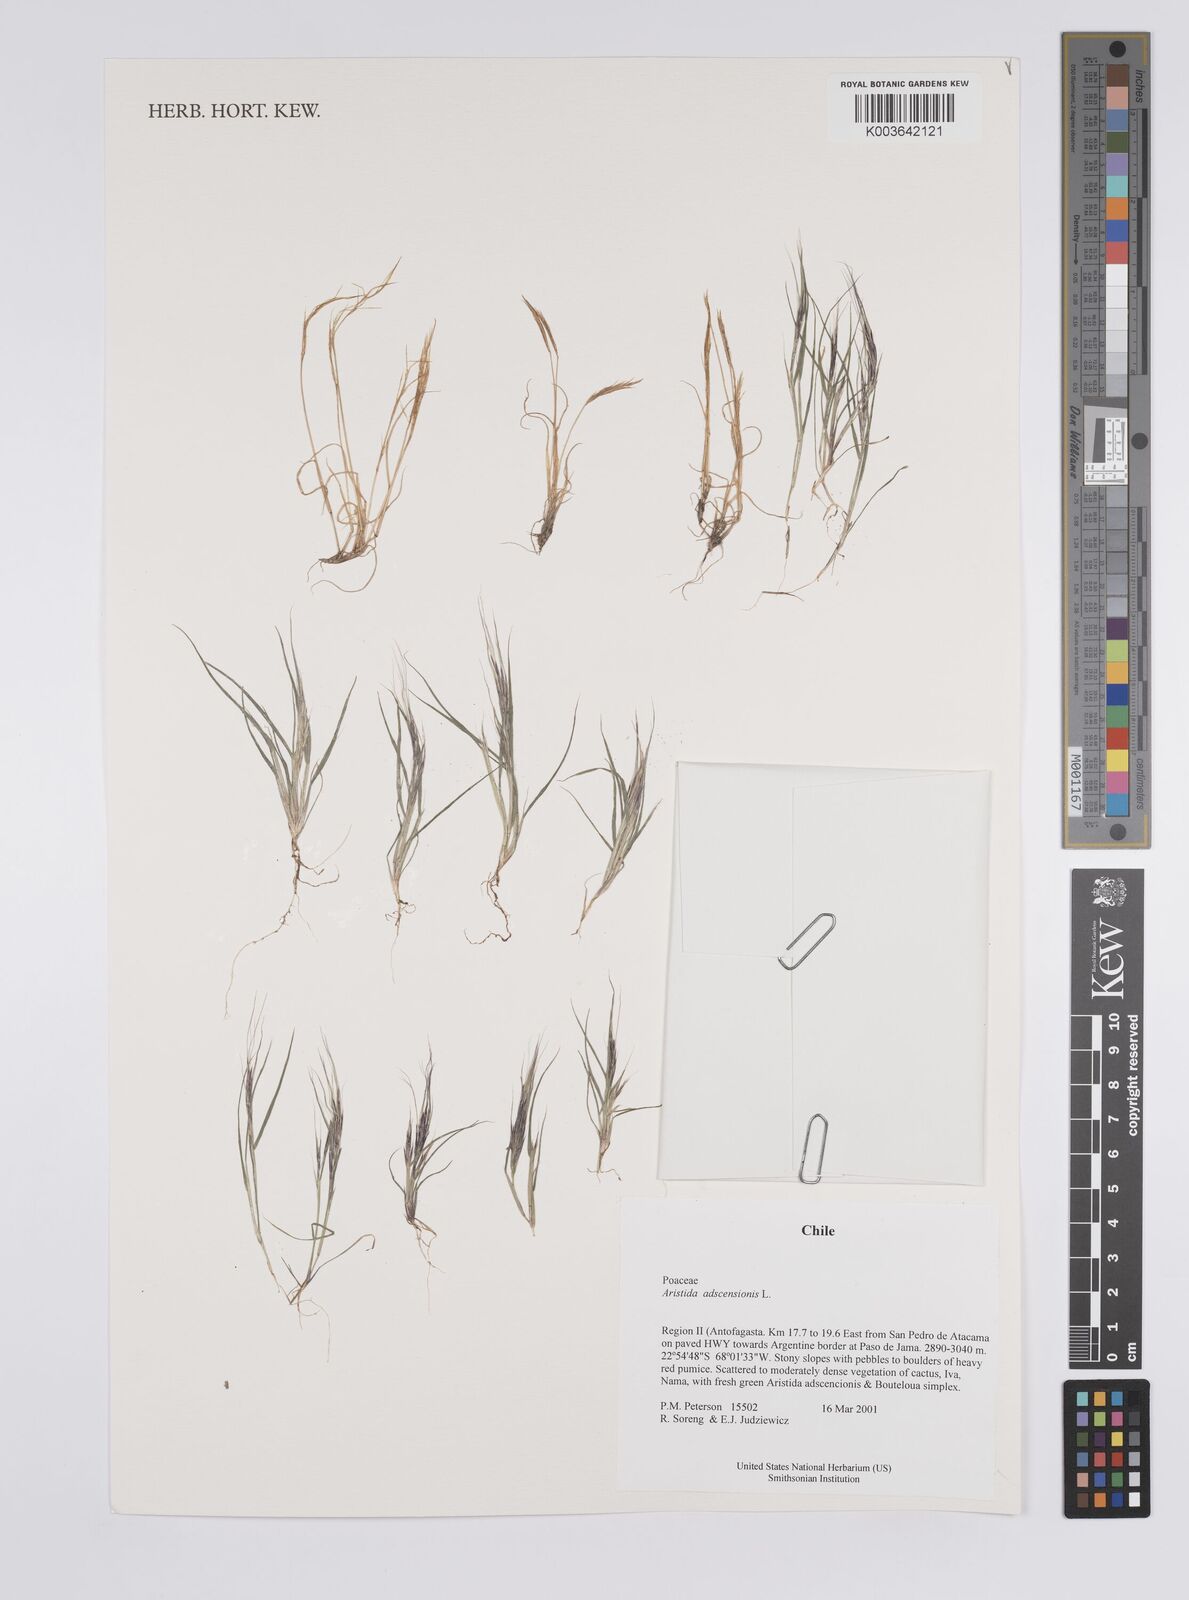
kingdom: Plantae
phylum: Tracheophyta
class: Liliopsida
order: Poales
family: Poaceae
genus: Aristida
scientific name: Aristida adscensionis
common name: Sixweeks threeawn
